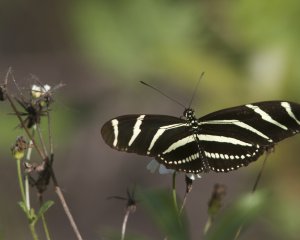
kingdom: Animalia
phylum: Arthropoda
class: Insecta
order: Lepidoptera
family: Nymphalidae
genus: Heliconius
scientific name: Heliconius charithonia
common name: Zebra Longwing
